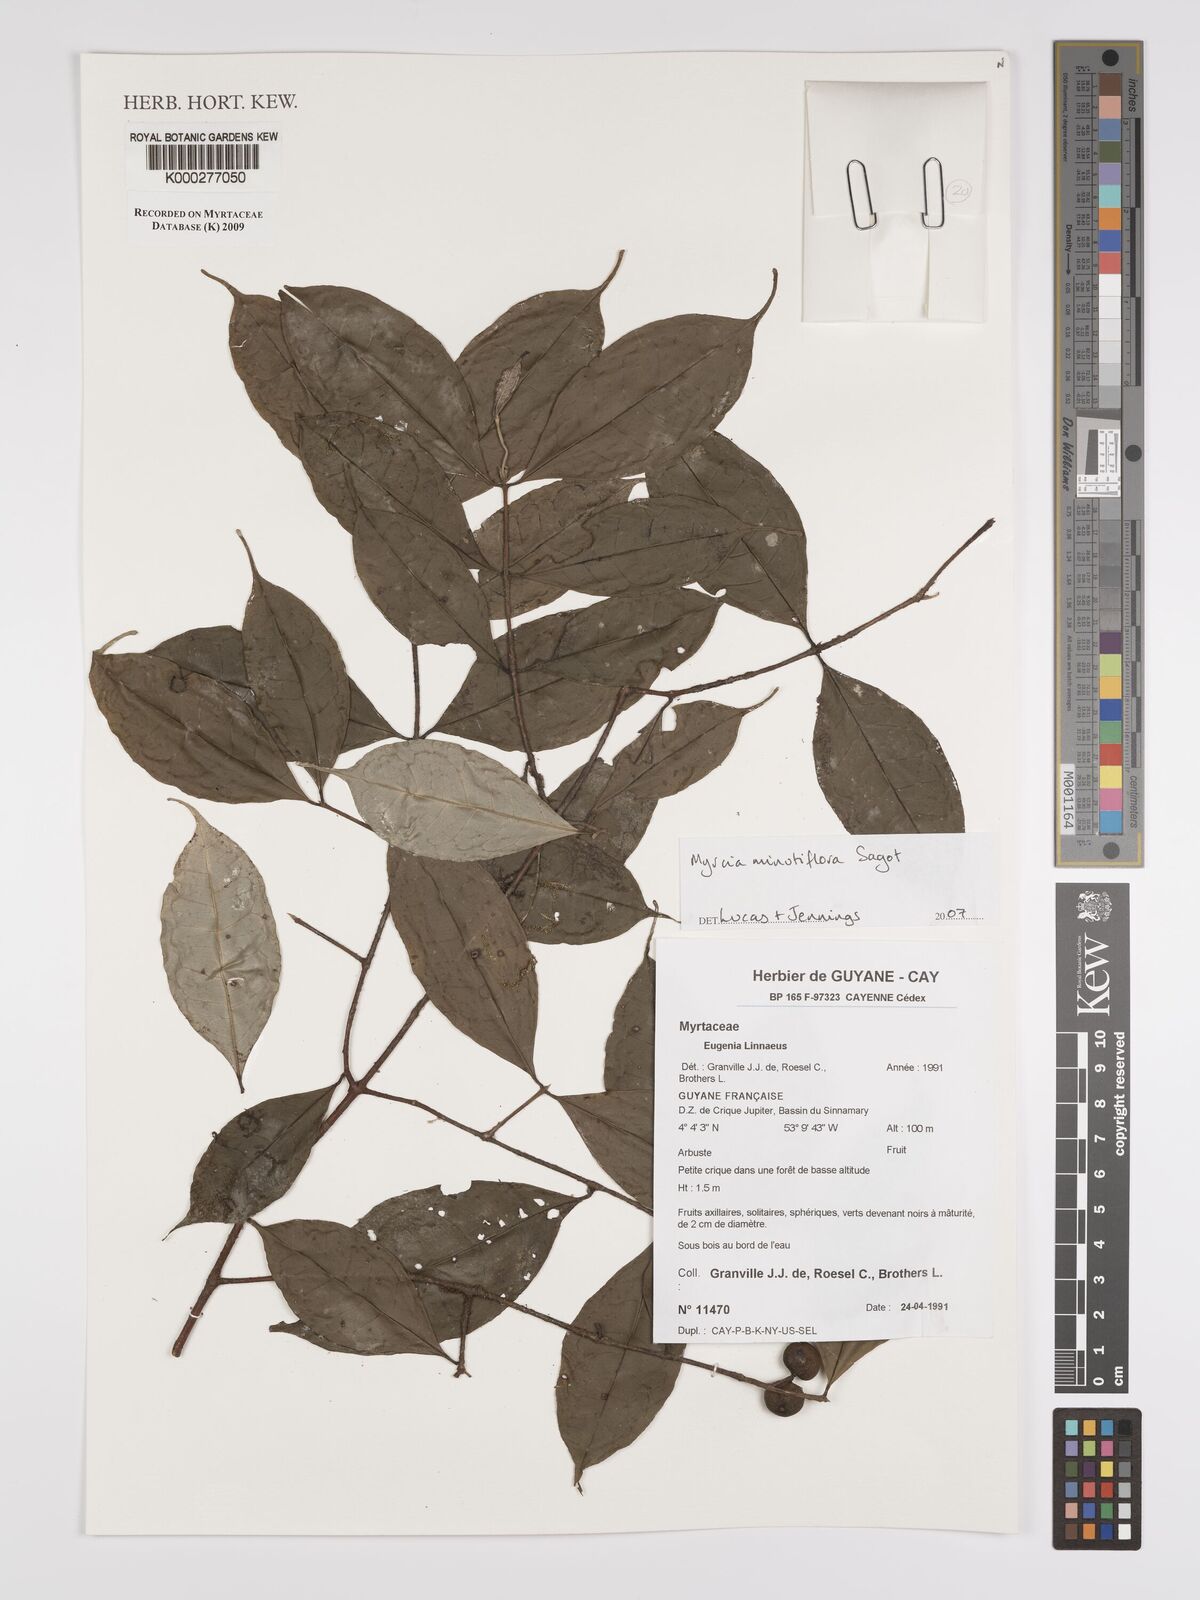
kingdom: Plantae
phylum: Tracheophyta
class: Magnoliopsida
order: Myrtales
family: Myrtaceae
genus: Myrcia
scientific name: Myrcia minutiflora
